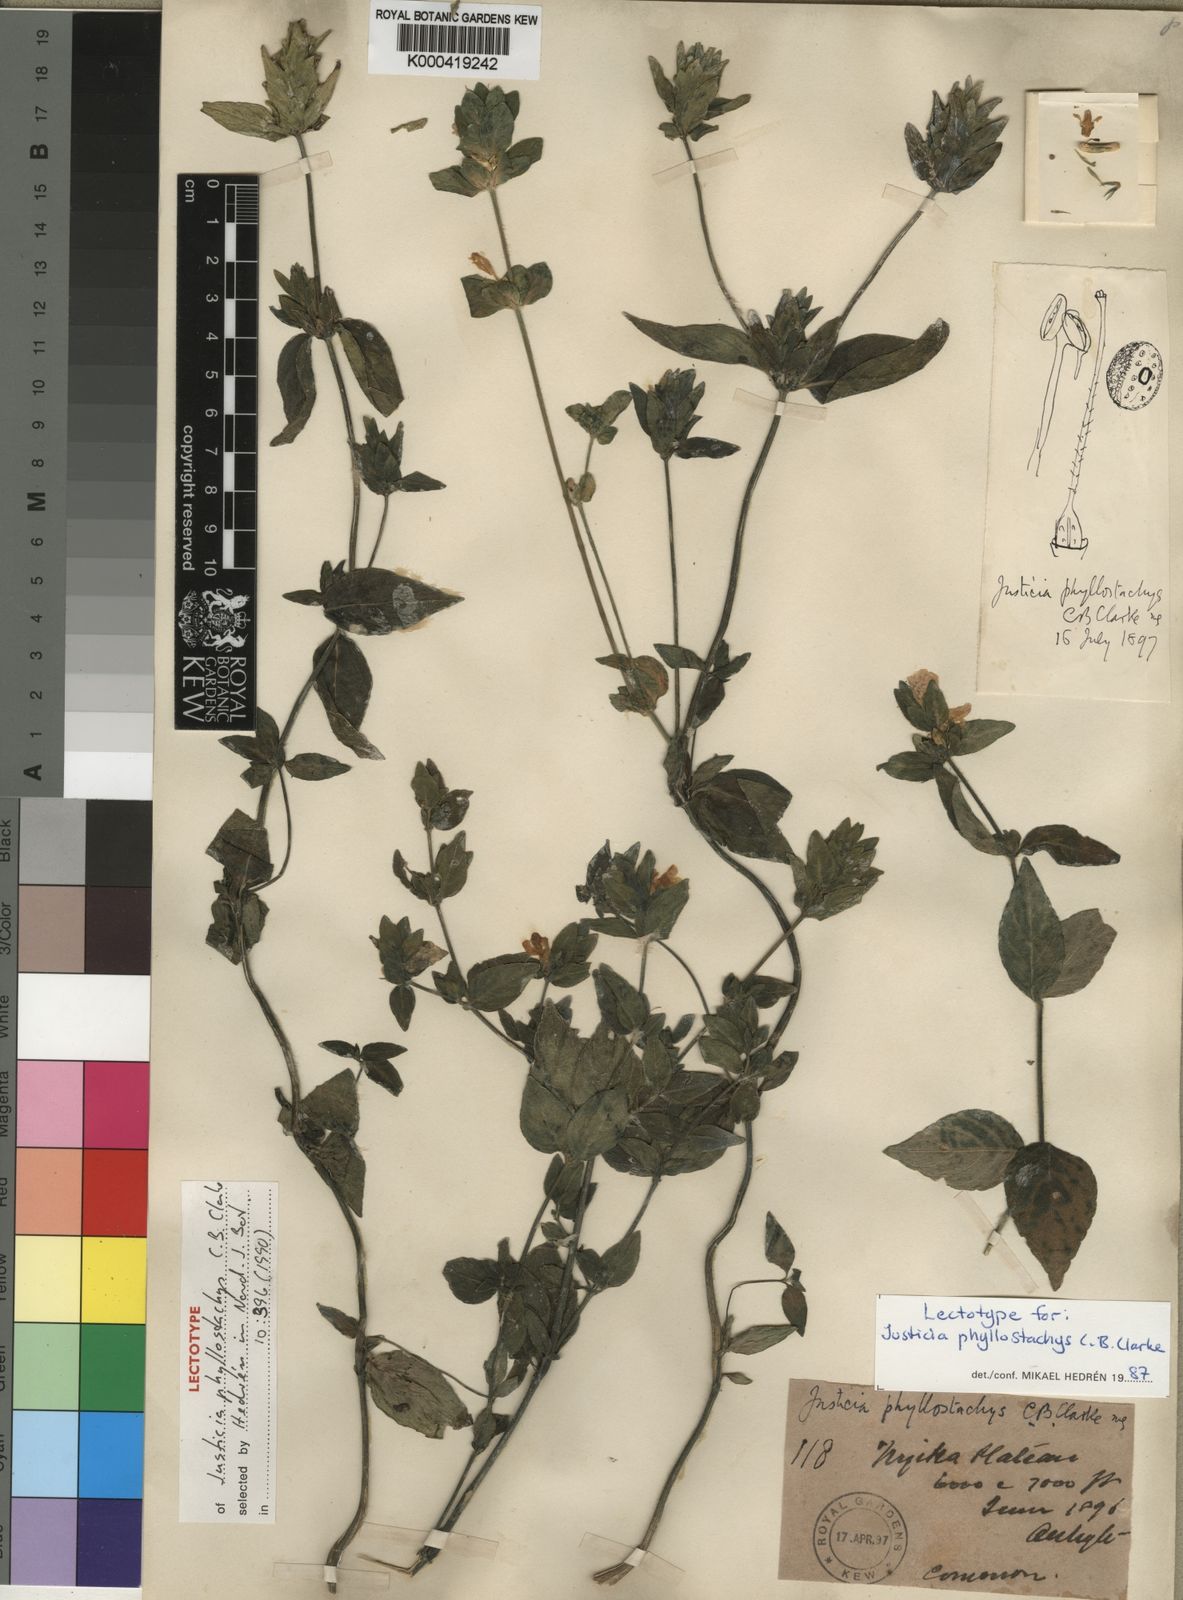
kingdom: Plantae
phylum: Tracheophyta
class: Magnoliopsida
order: Lamiales
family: Acanthaceae
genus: Justicia
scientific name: Justicia phyllostachys
